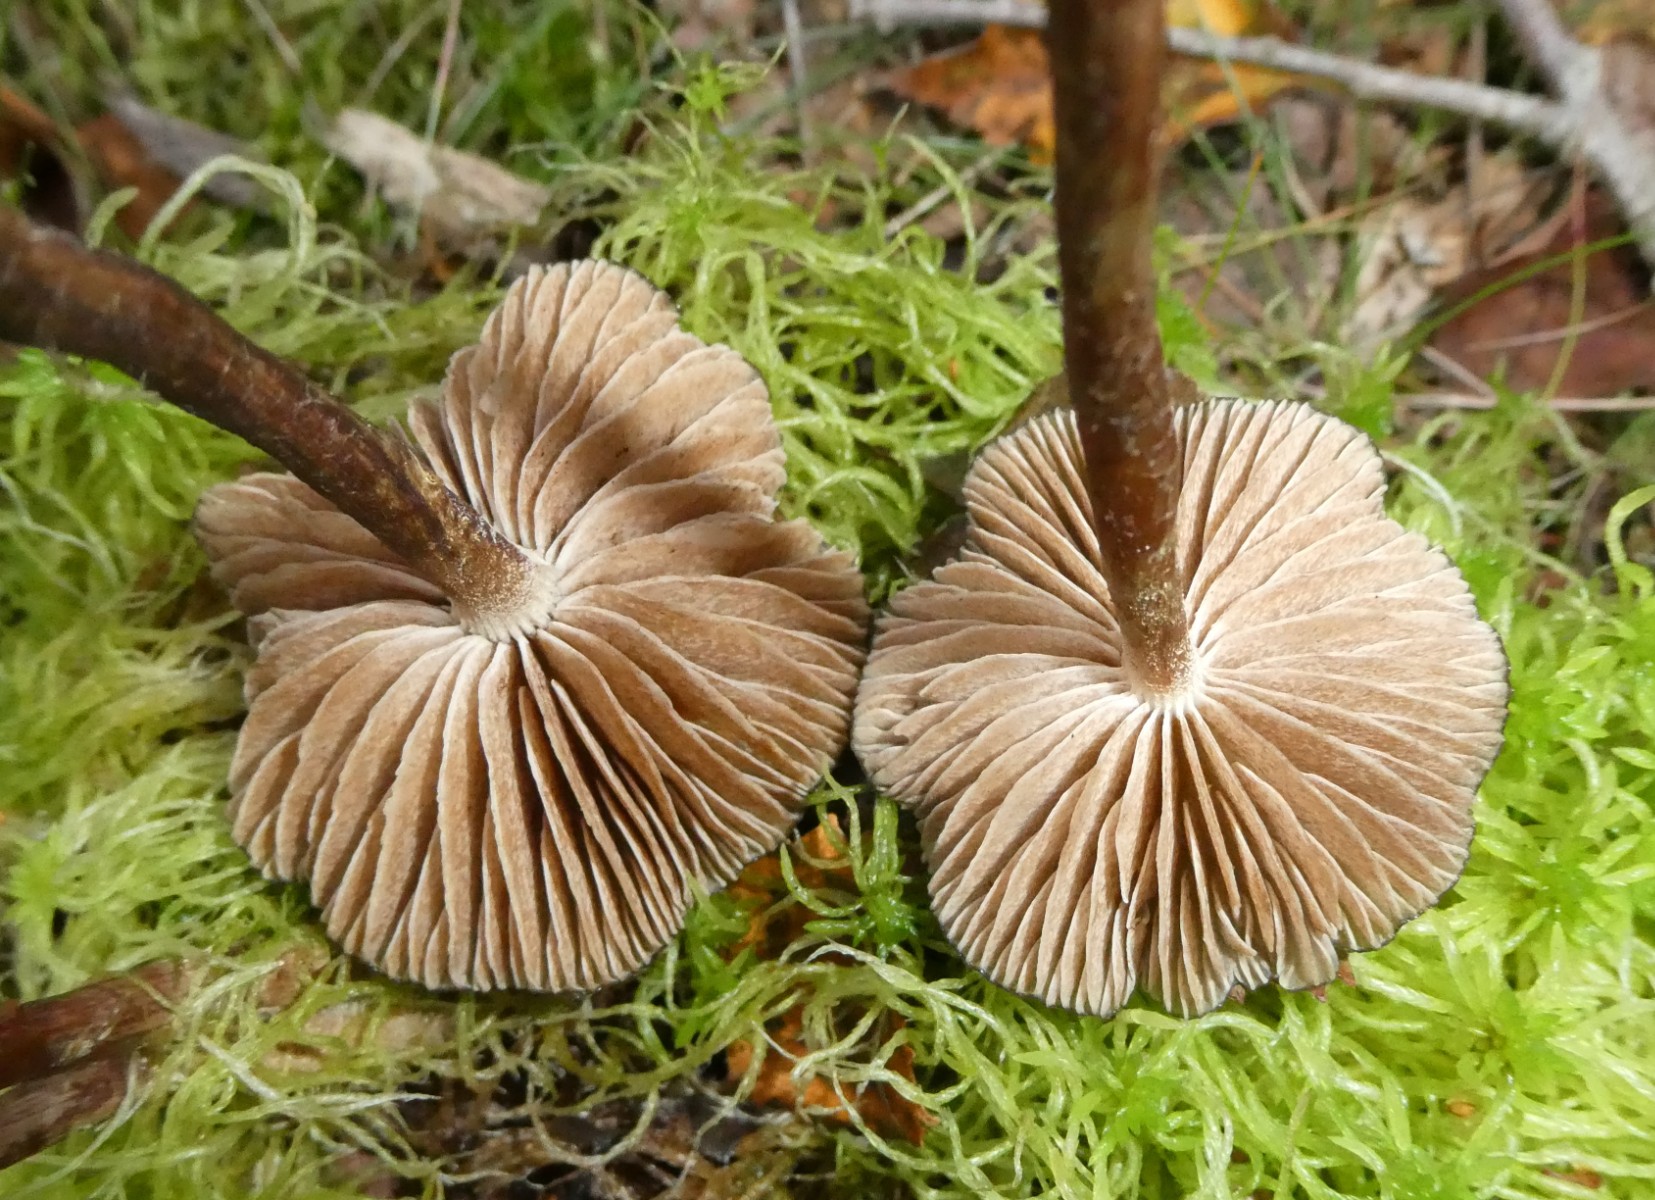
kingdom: Fungi
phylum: Basidiomycota
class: Agaricomycetes
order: Agaricales
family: Strophariaceae
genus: Hypholoma
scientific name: Hypholoma myosotis
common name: slimet svovlhat
